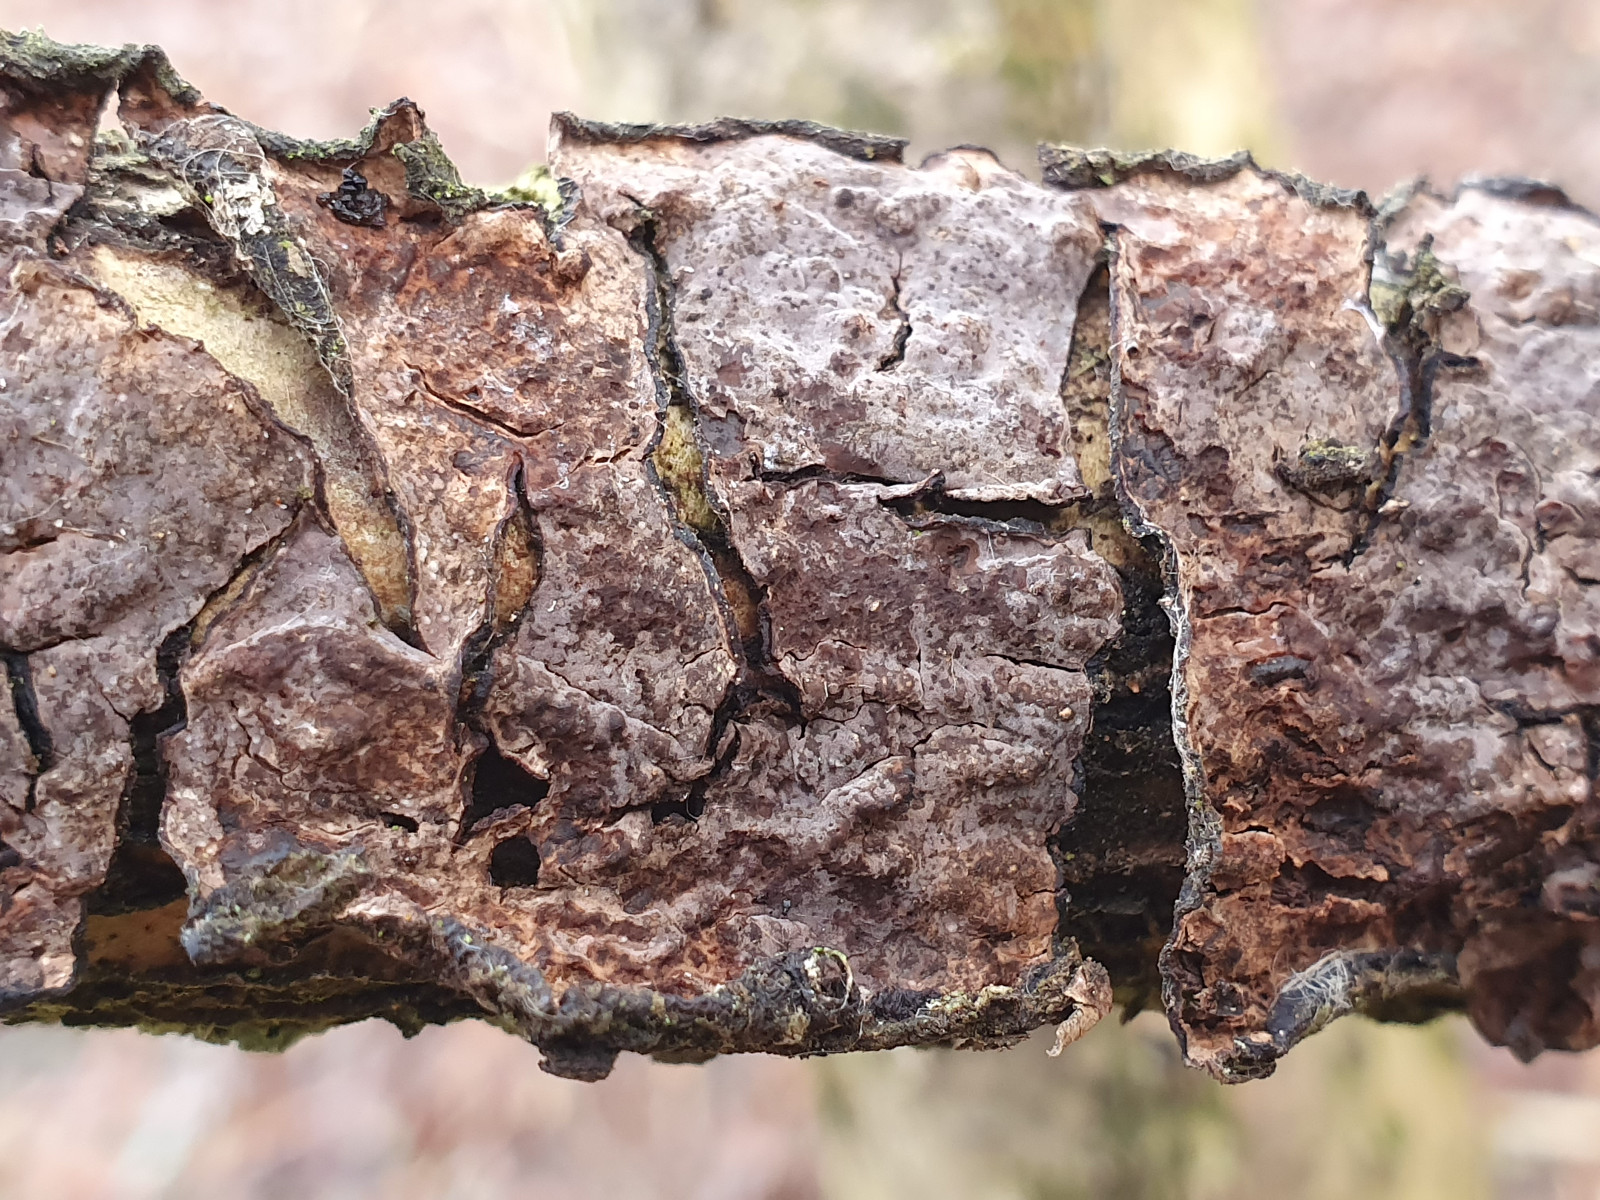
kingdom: Fungi
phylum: Basidiomycota
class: Agaricomycetes
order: Russulales
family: Peniophoraceae
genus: Peniophora
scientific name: Peniophora quercina
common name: ege-voksskind
